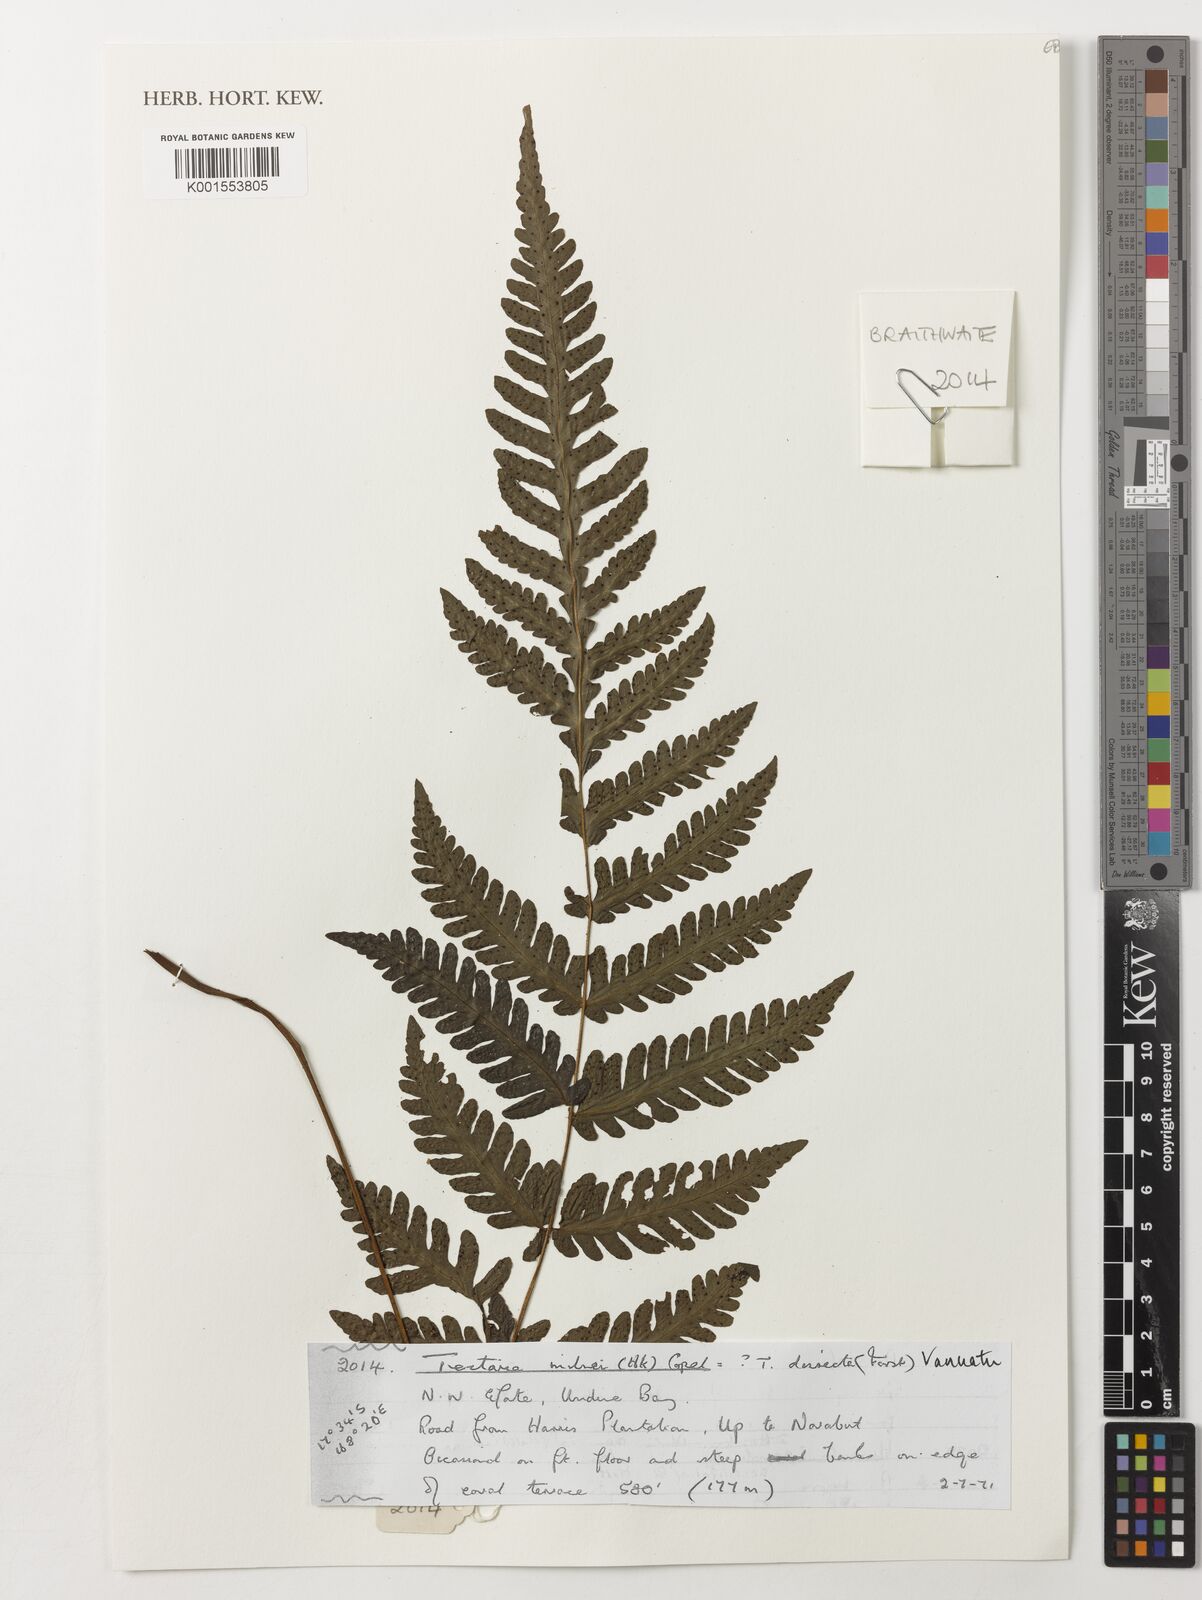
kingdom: Plantae
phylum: Tracheophyta
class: Polypodiopsida
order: Polypodiales
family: Tectariaceae
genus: Tectaria
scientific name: Tectaria hookeri
